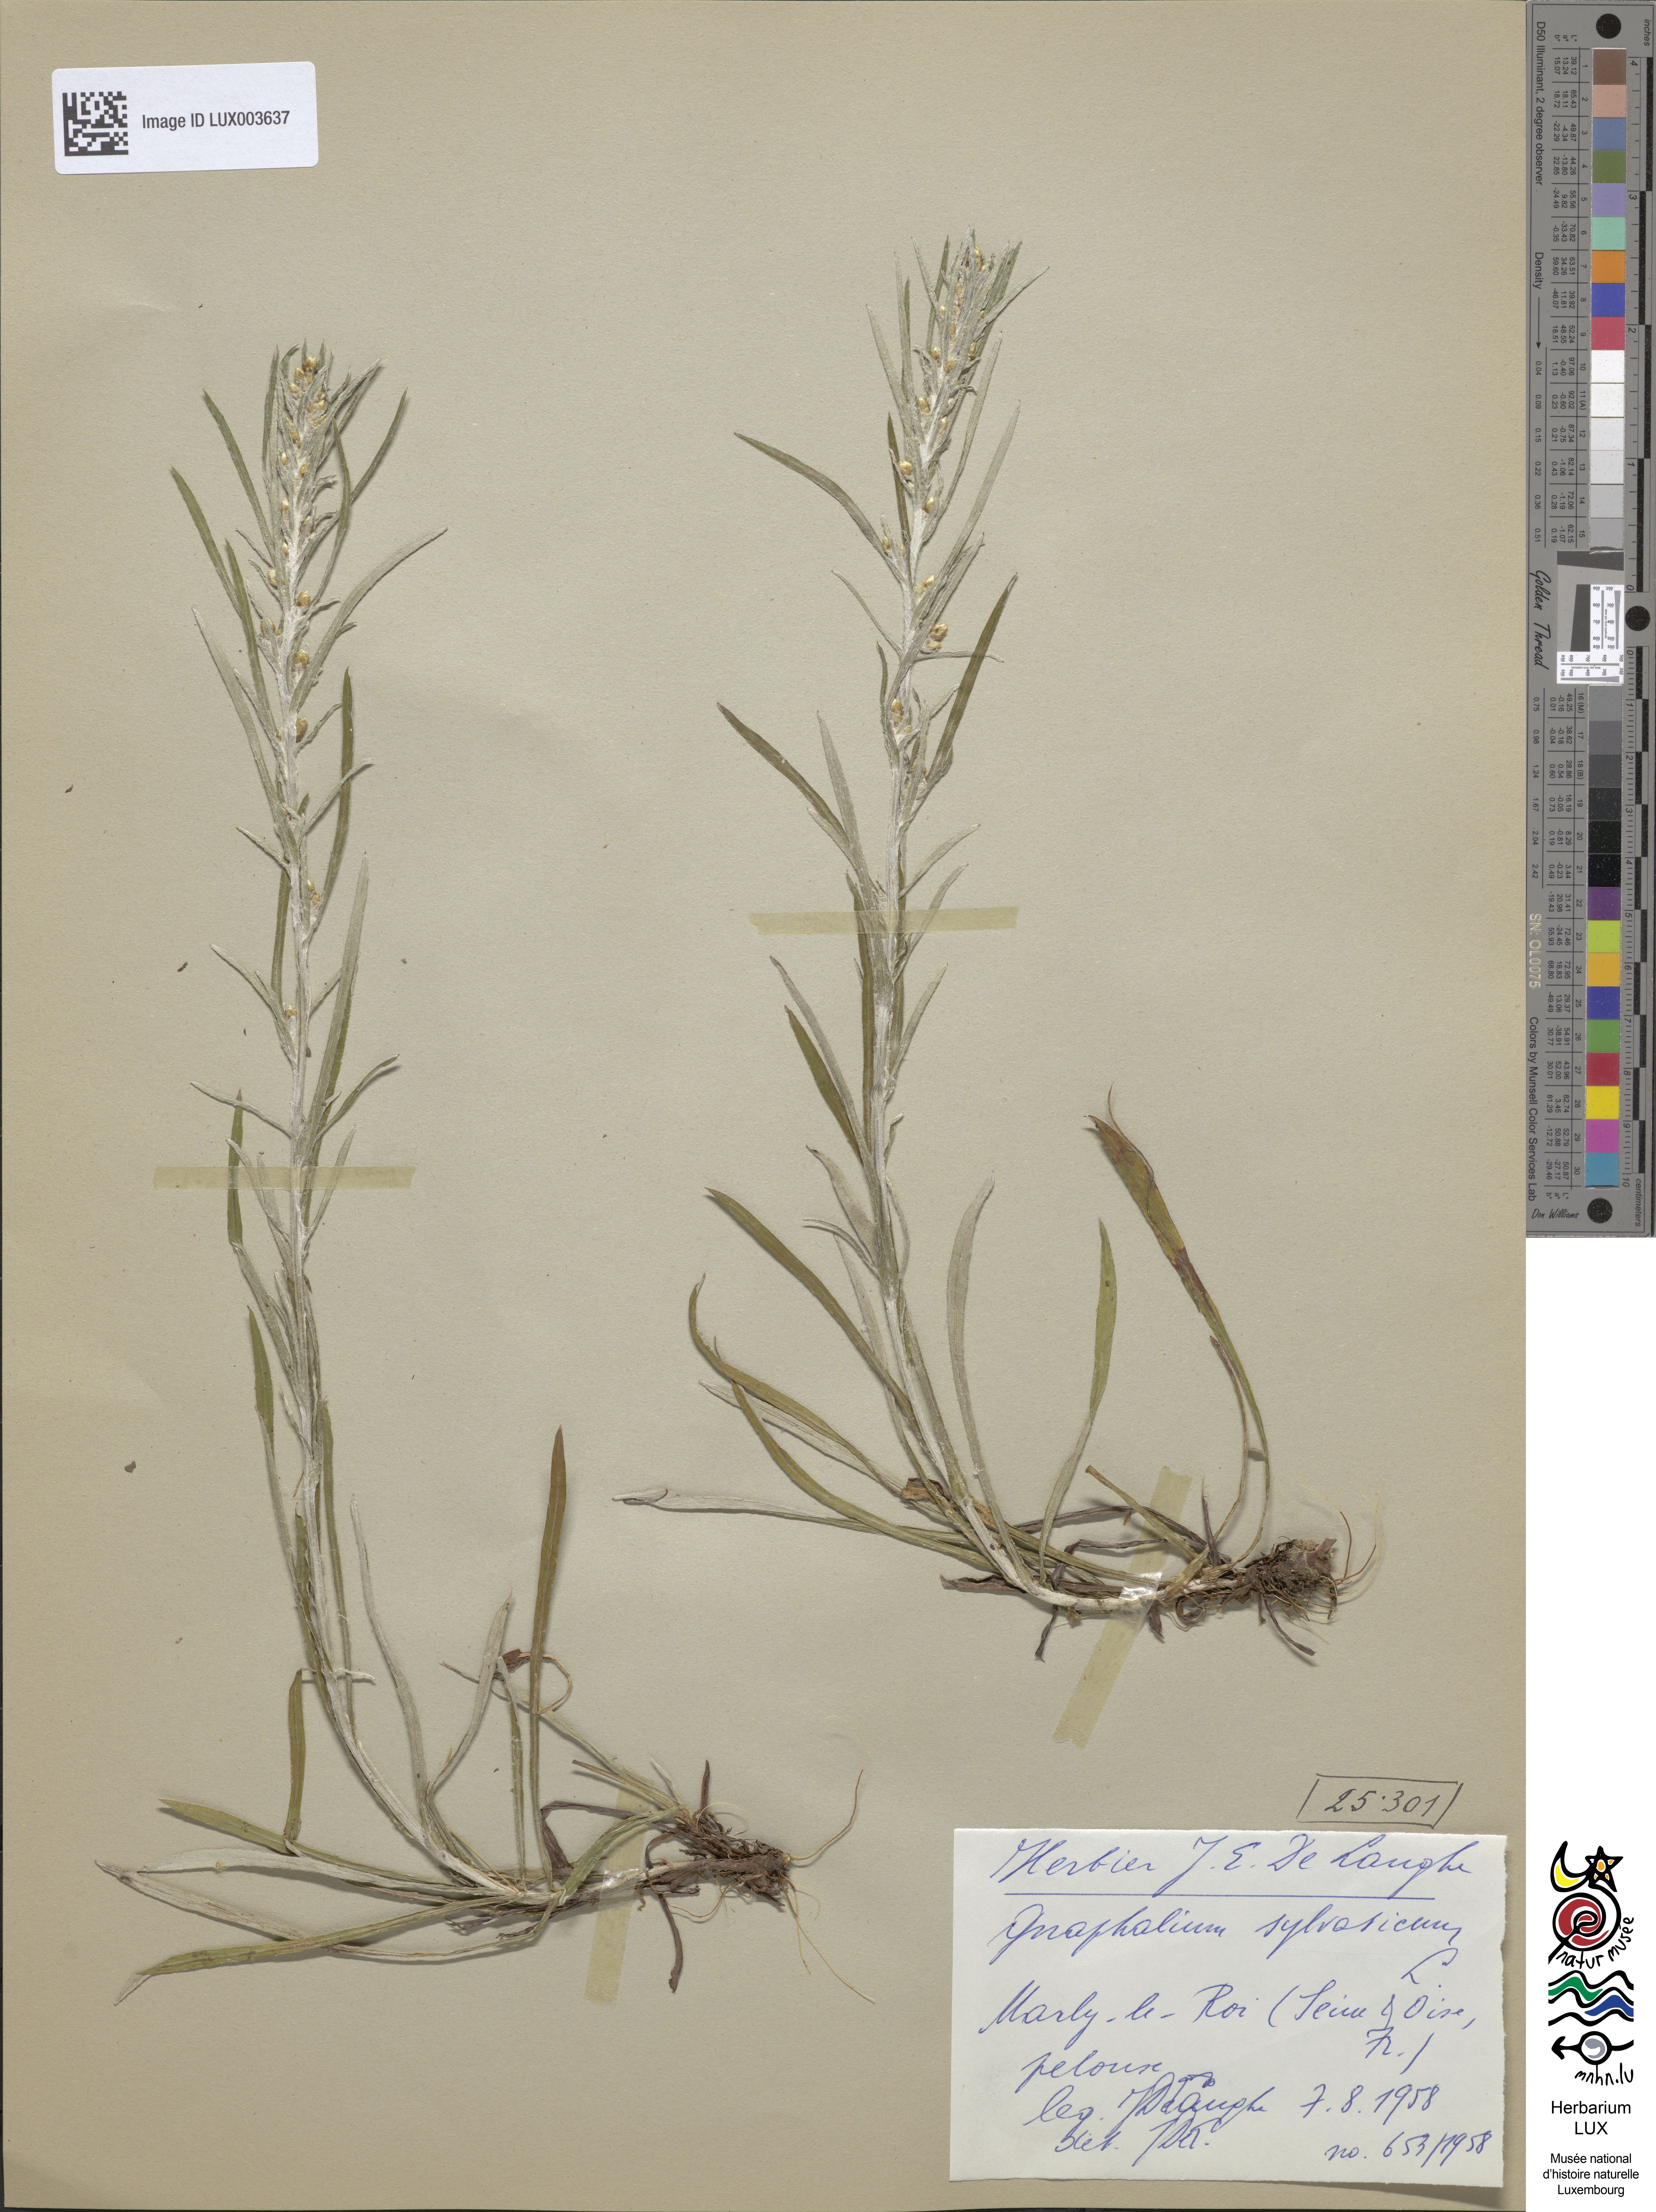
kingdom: Plantae
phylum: Tracheophyta
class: Magnoliopsida
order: Asterales
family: Asteraceae
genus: Omalotheca
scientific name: Omalotheca sylvatica
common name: Heath cudweed
